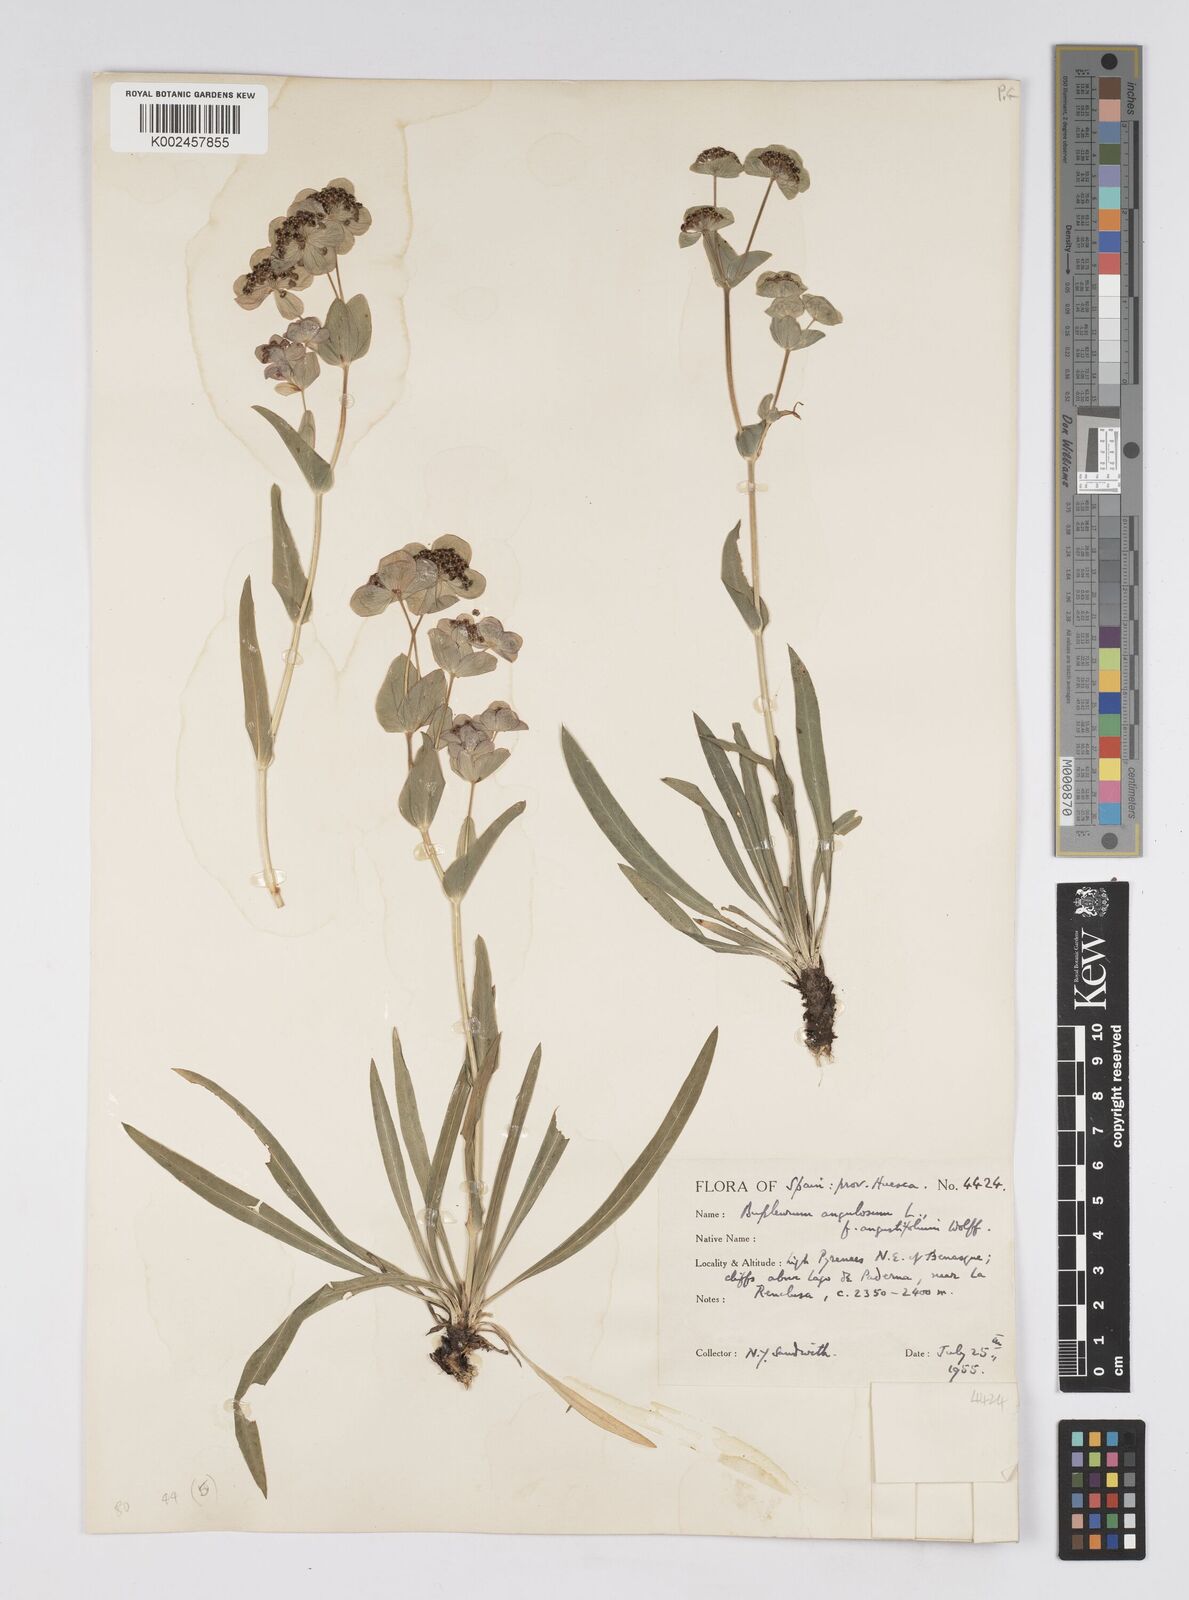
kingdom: Plantae
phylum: Tracheophyta
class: Magnoliopsida
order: Apiales
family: Apiaceae
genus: Bupleurum
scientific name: Bupleurum angulosum
